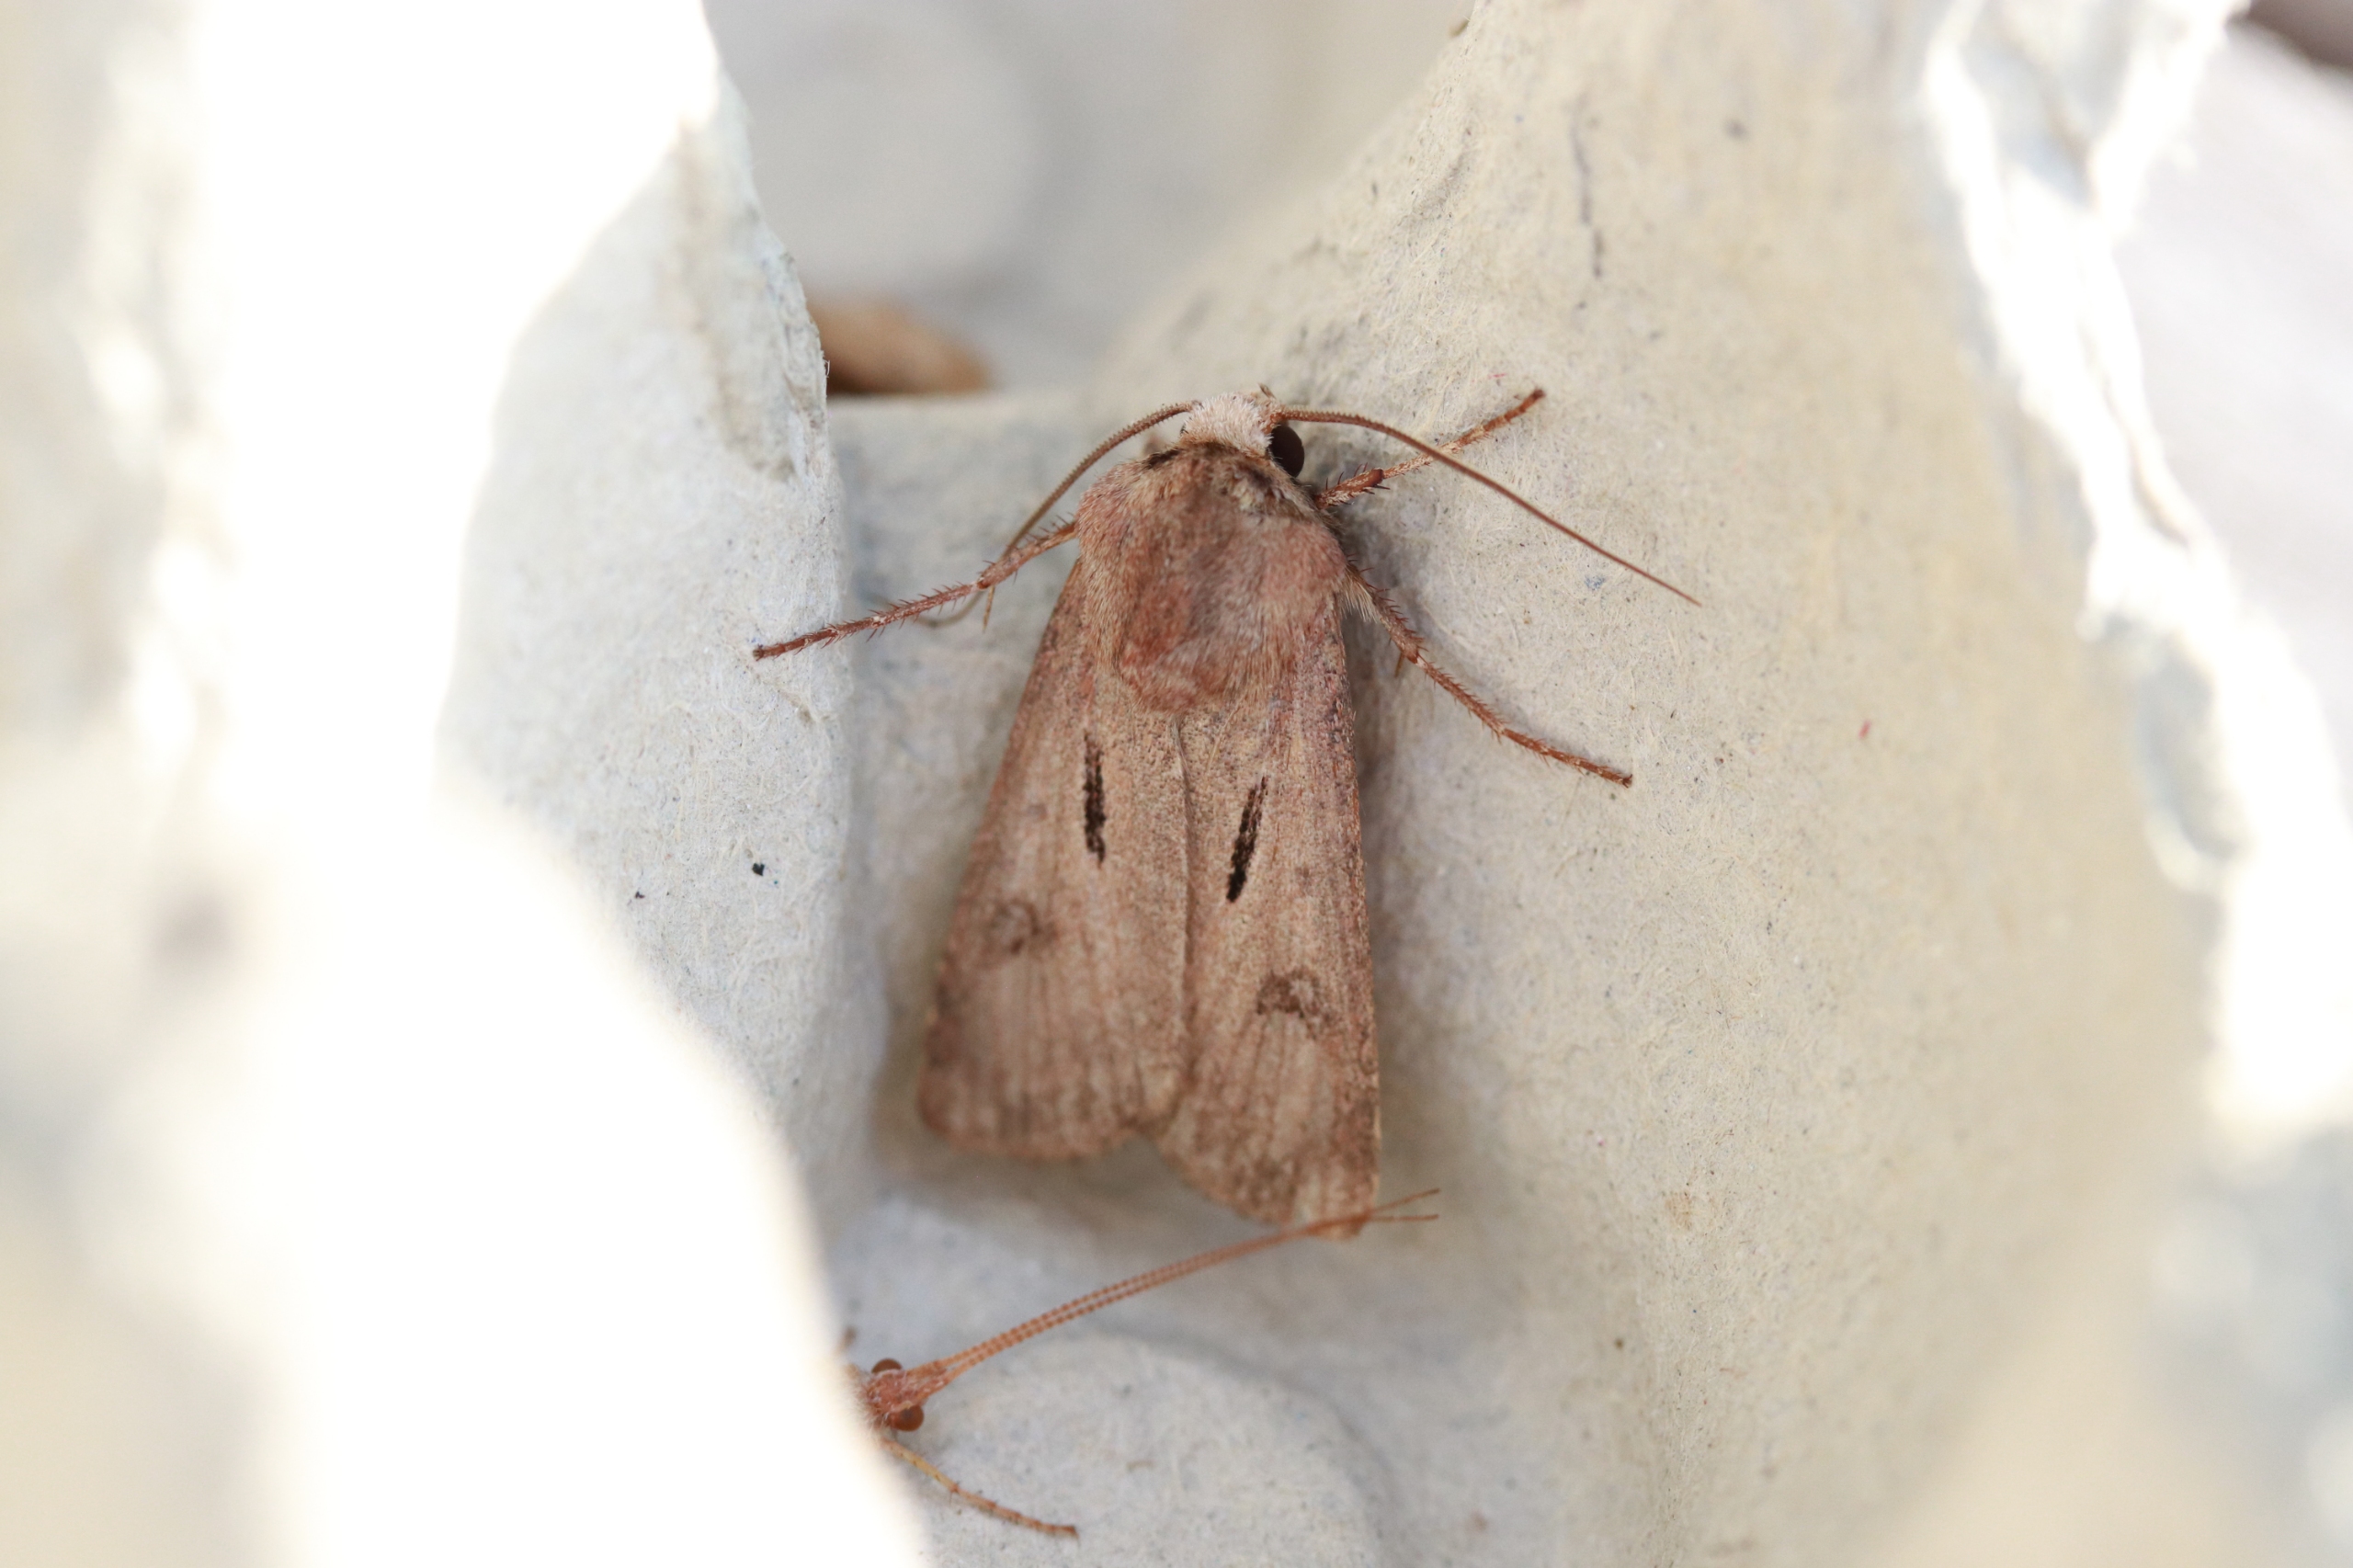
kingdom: Animalia
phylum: Arthropoda
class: Insecta
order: Lepidoptera
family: Noctuidae
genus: Agrotis
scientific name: Agrotis exclamationis
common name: Udråbstegnsugle
